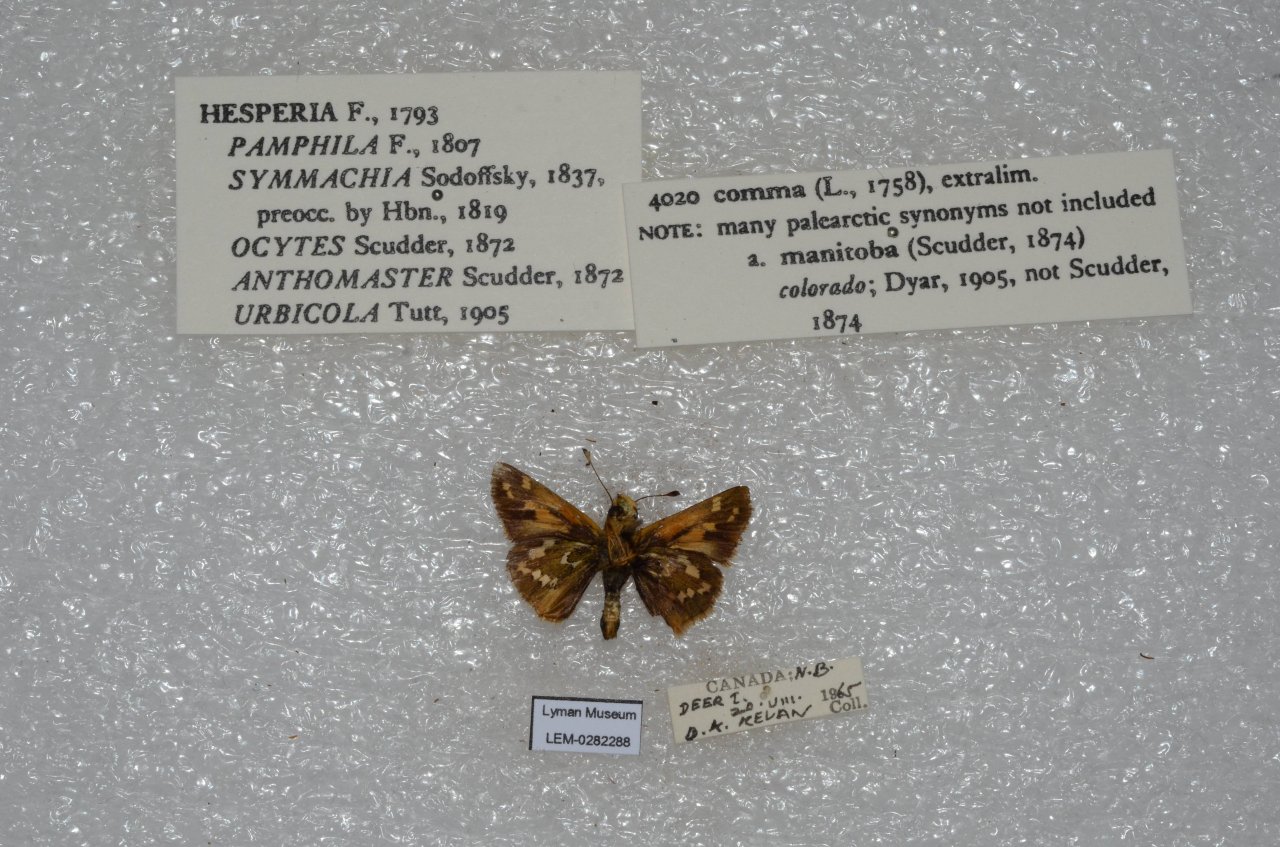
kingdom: Animalia
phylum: Arthropoda
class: Insecta
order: Lepidoptera
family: Hesperiidae
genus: Hesperia
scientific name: Hesperia comma
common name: Common Branded Skipper
